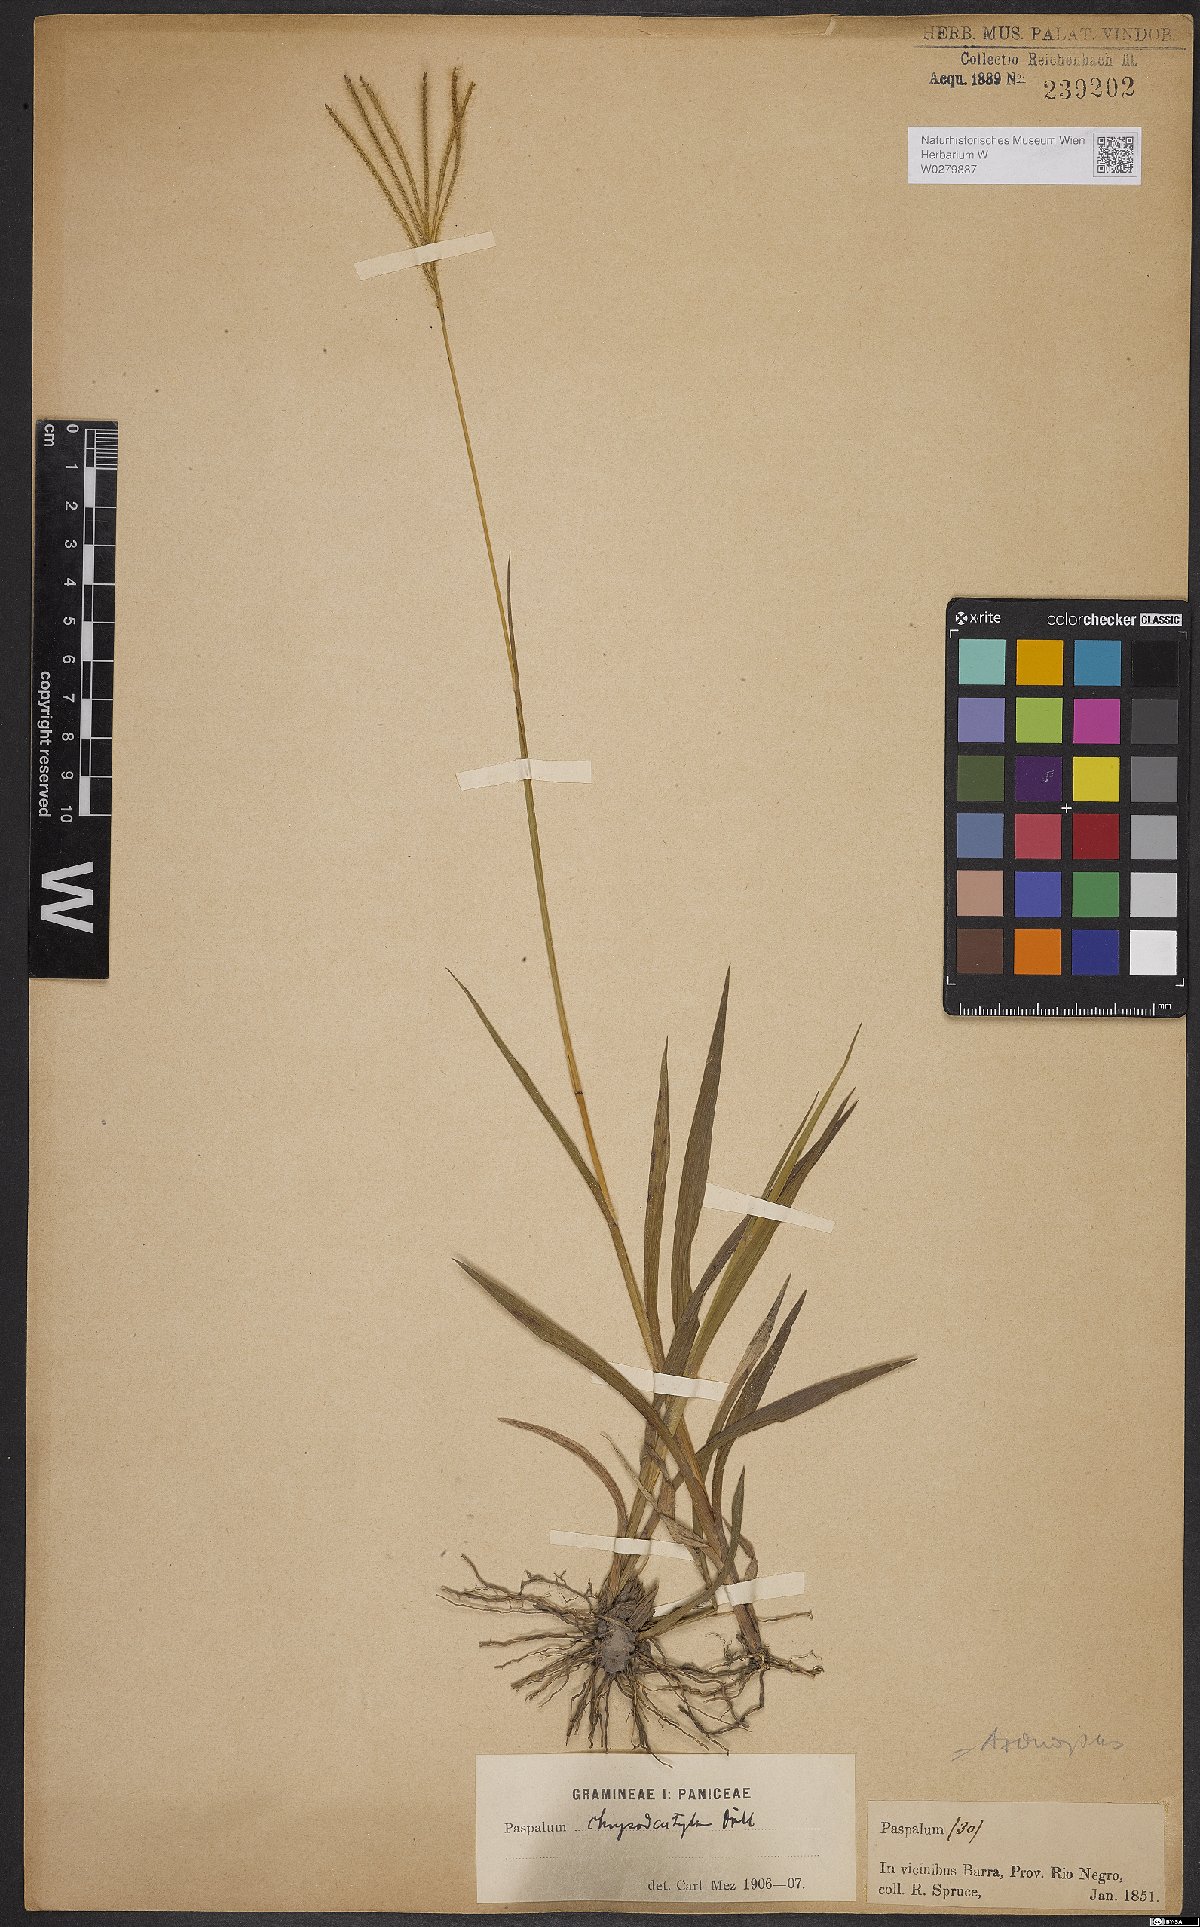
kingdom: Plantae
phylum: Tracheophyta
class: Liliopsida
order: Poales
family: Poaceae
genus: Axonopus
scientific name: Axonopus aureus
